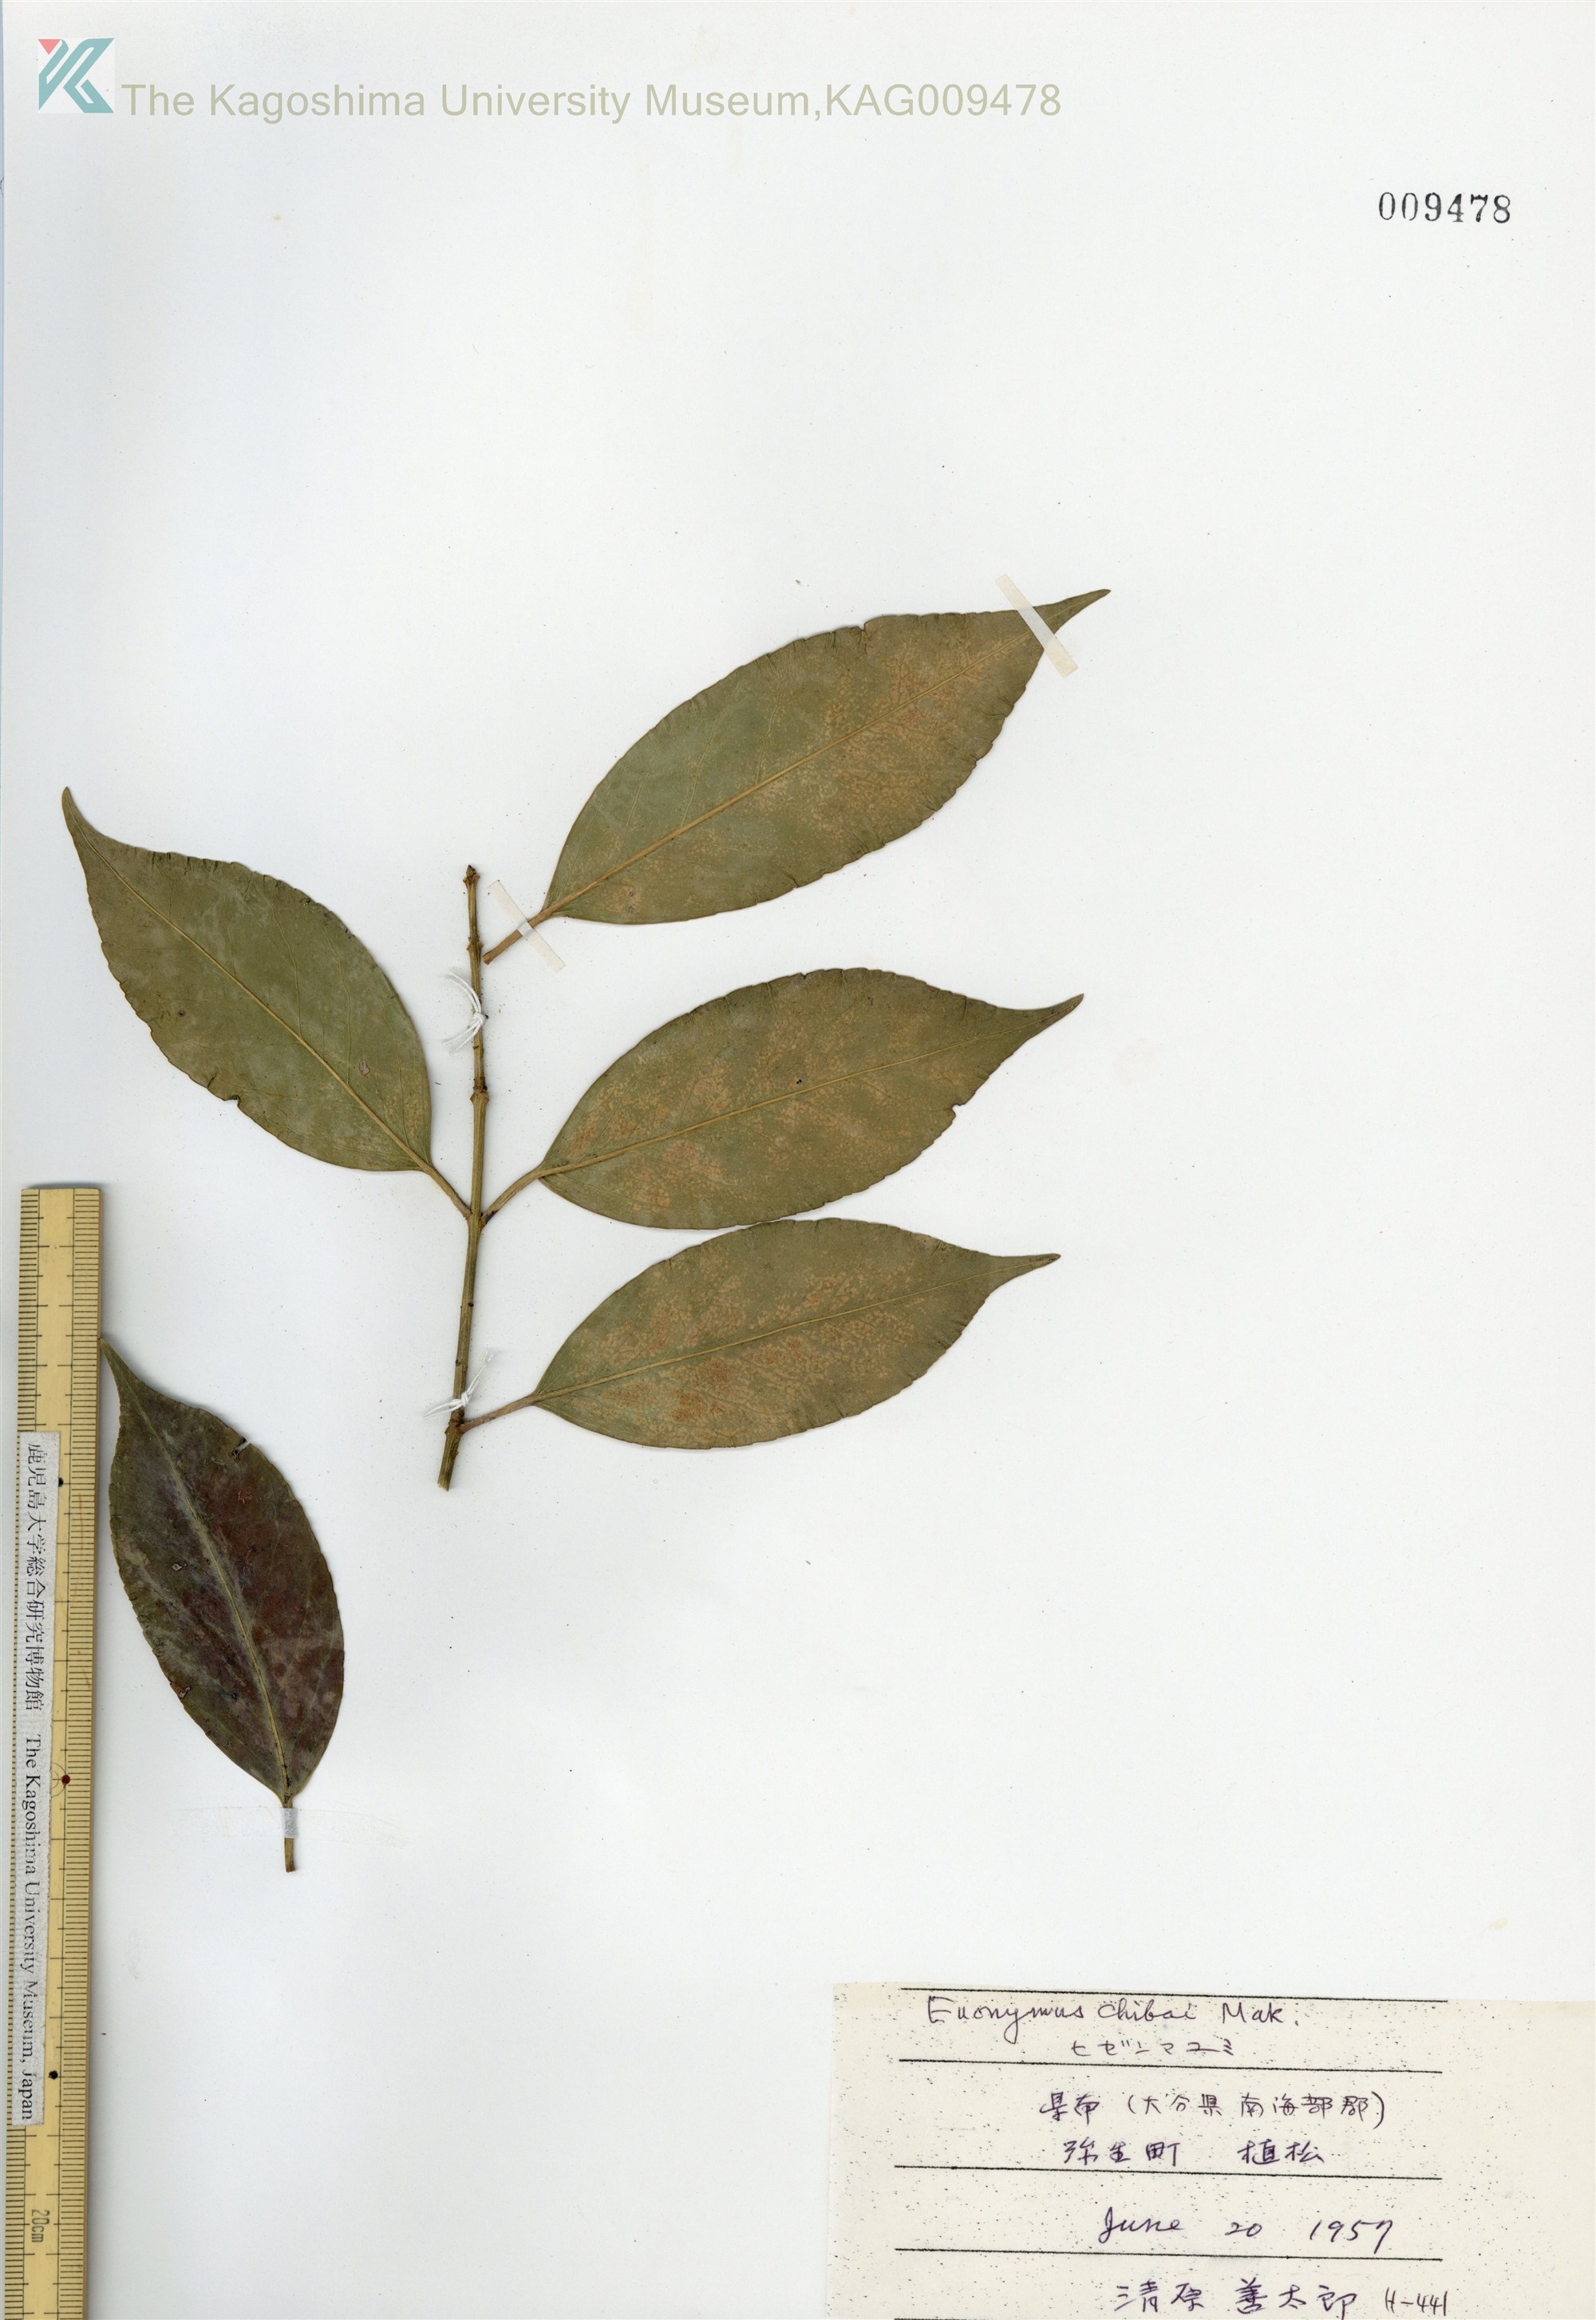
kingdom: Plantae
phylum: Tracheophyta
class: Magnoliopsida
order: Celastrales
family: Celastraceae
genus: Euonymus
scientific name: Euonymus chibae
